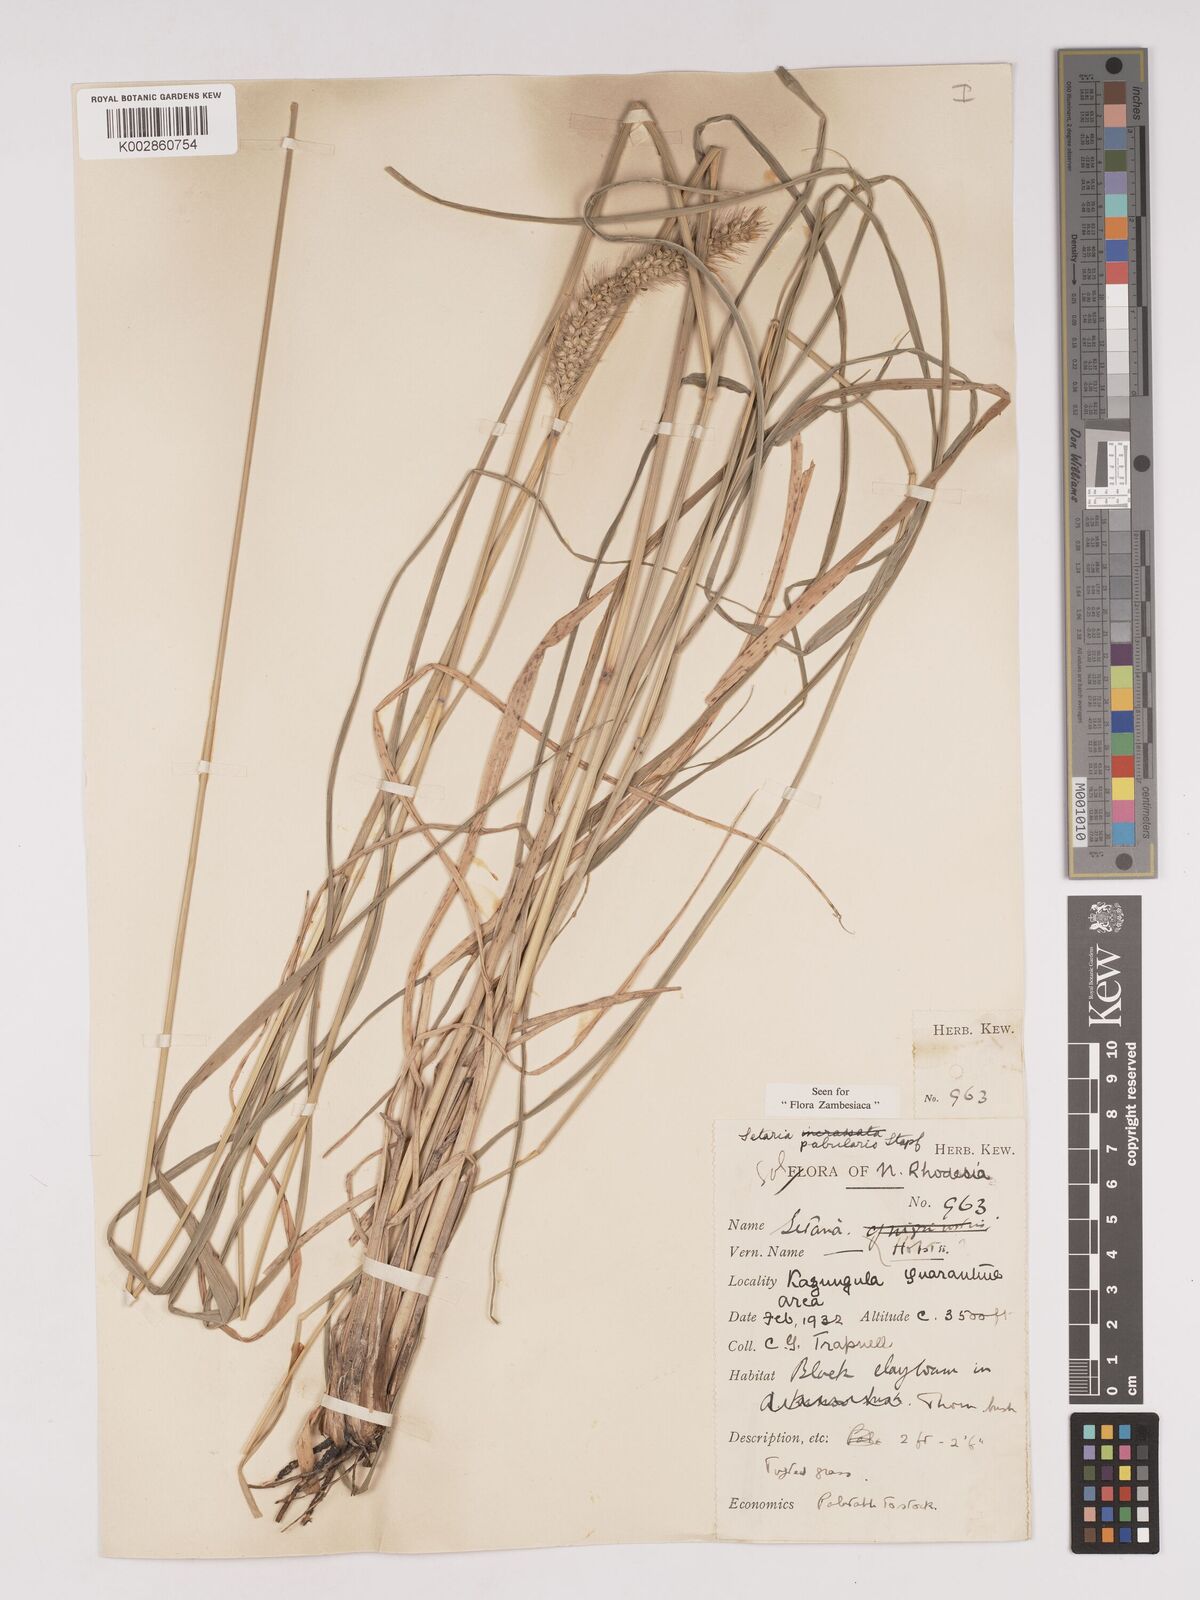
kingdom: Plantae
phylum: Tracheophyta
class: Liliopsida
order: Poales
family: Poaceae
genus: Setaria
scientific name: Setaria incrassata
